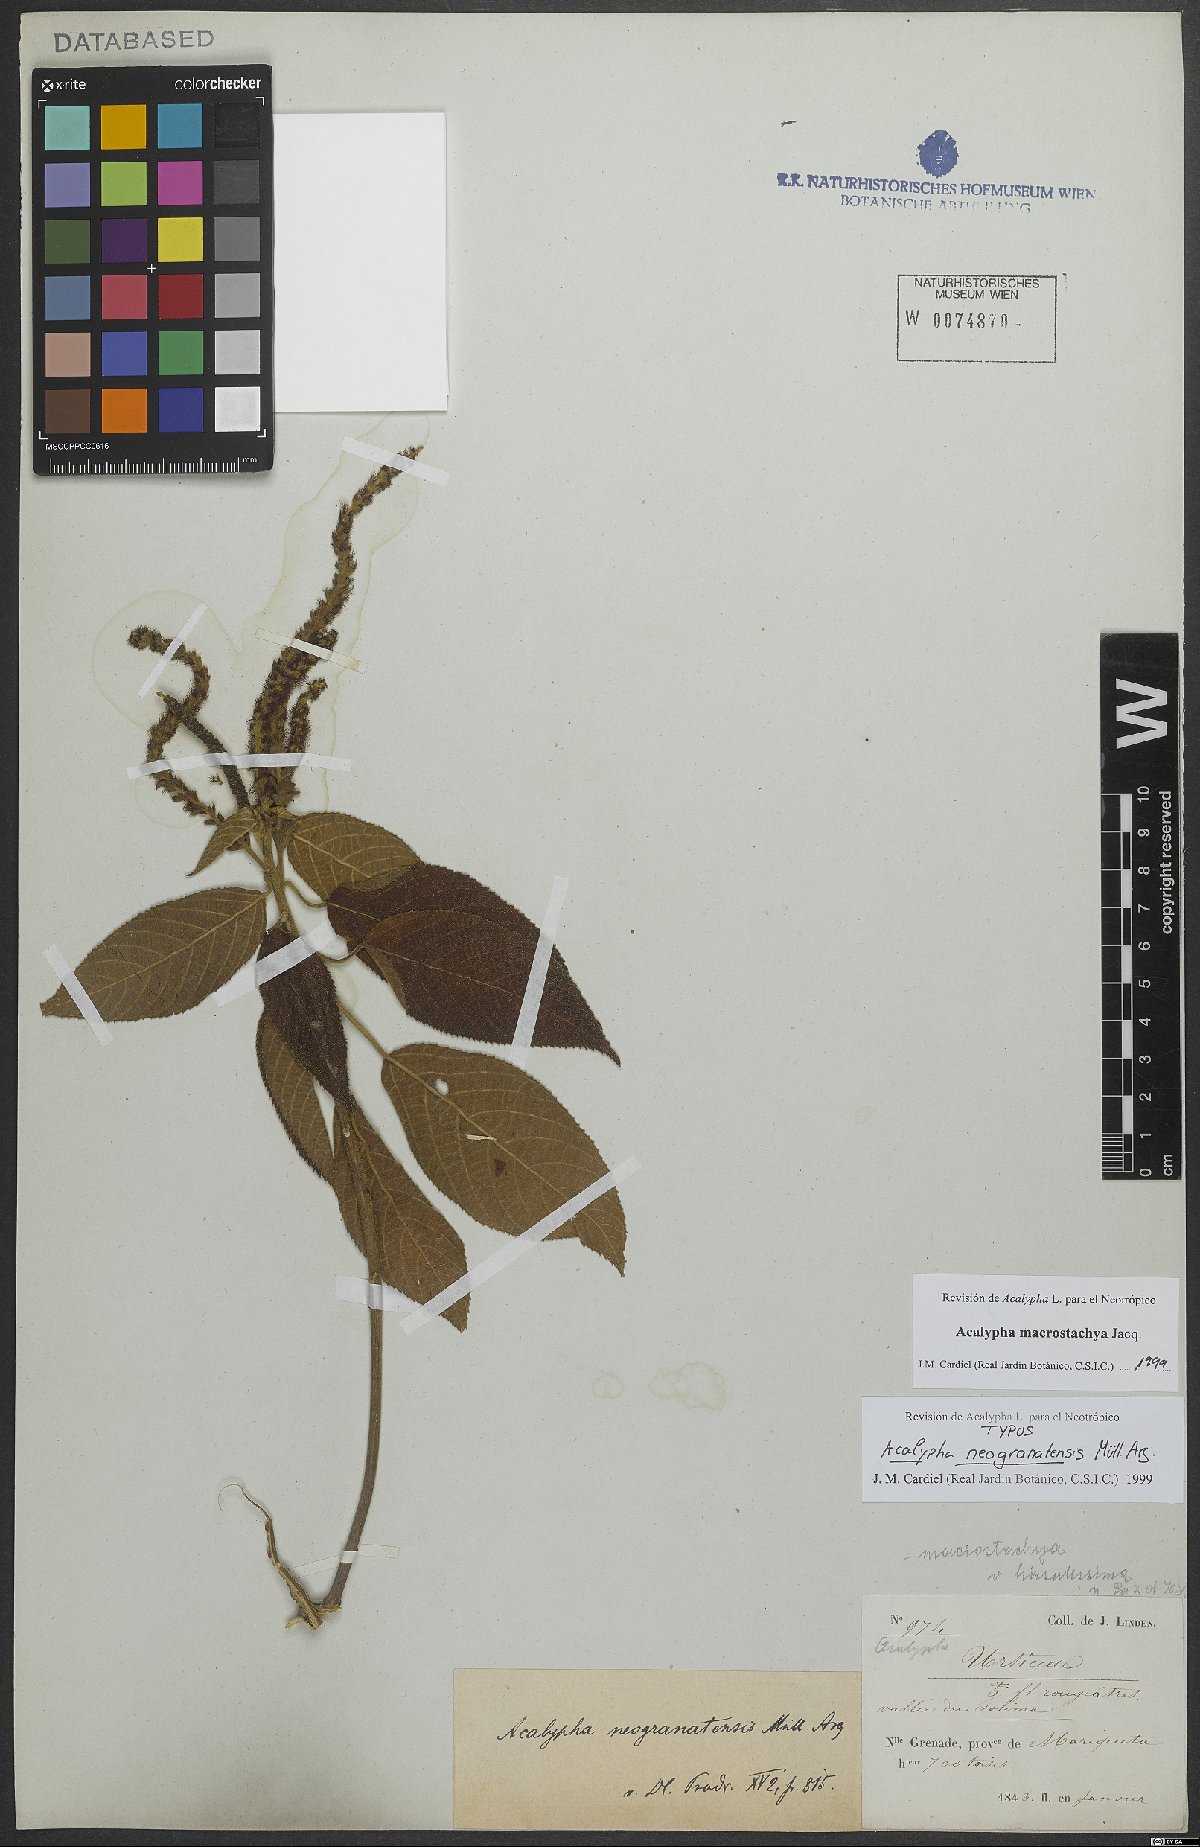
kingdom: Plantae
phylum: Tracheophyta
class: Magnoliopsida
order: Malpighiales
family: Euphorbiaceae
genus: Acalypha
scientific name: Acalypha macrostachya
